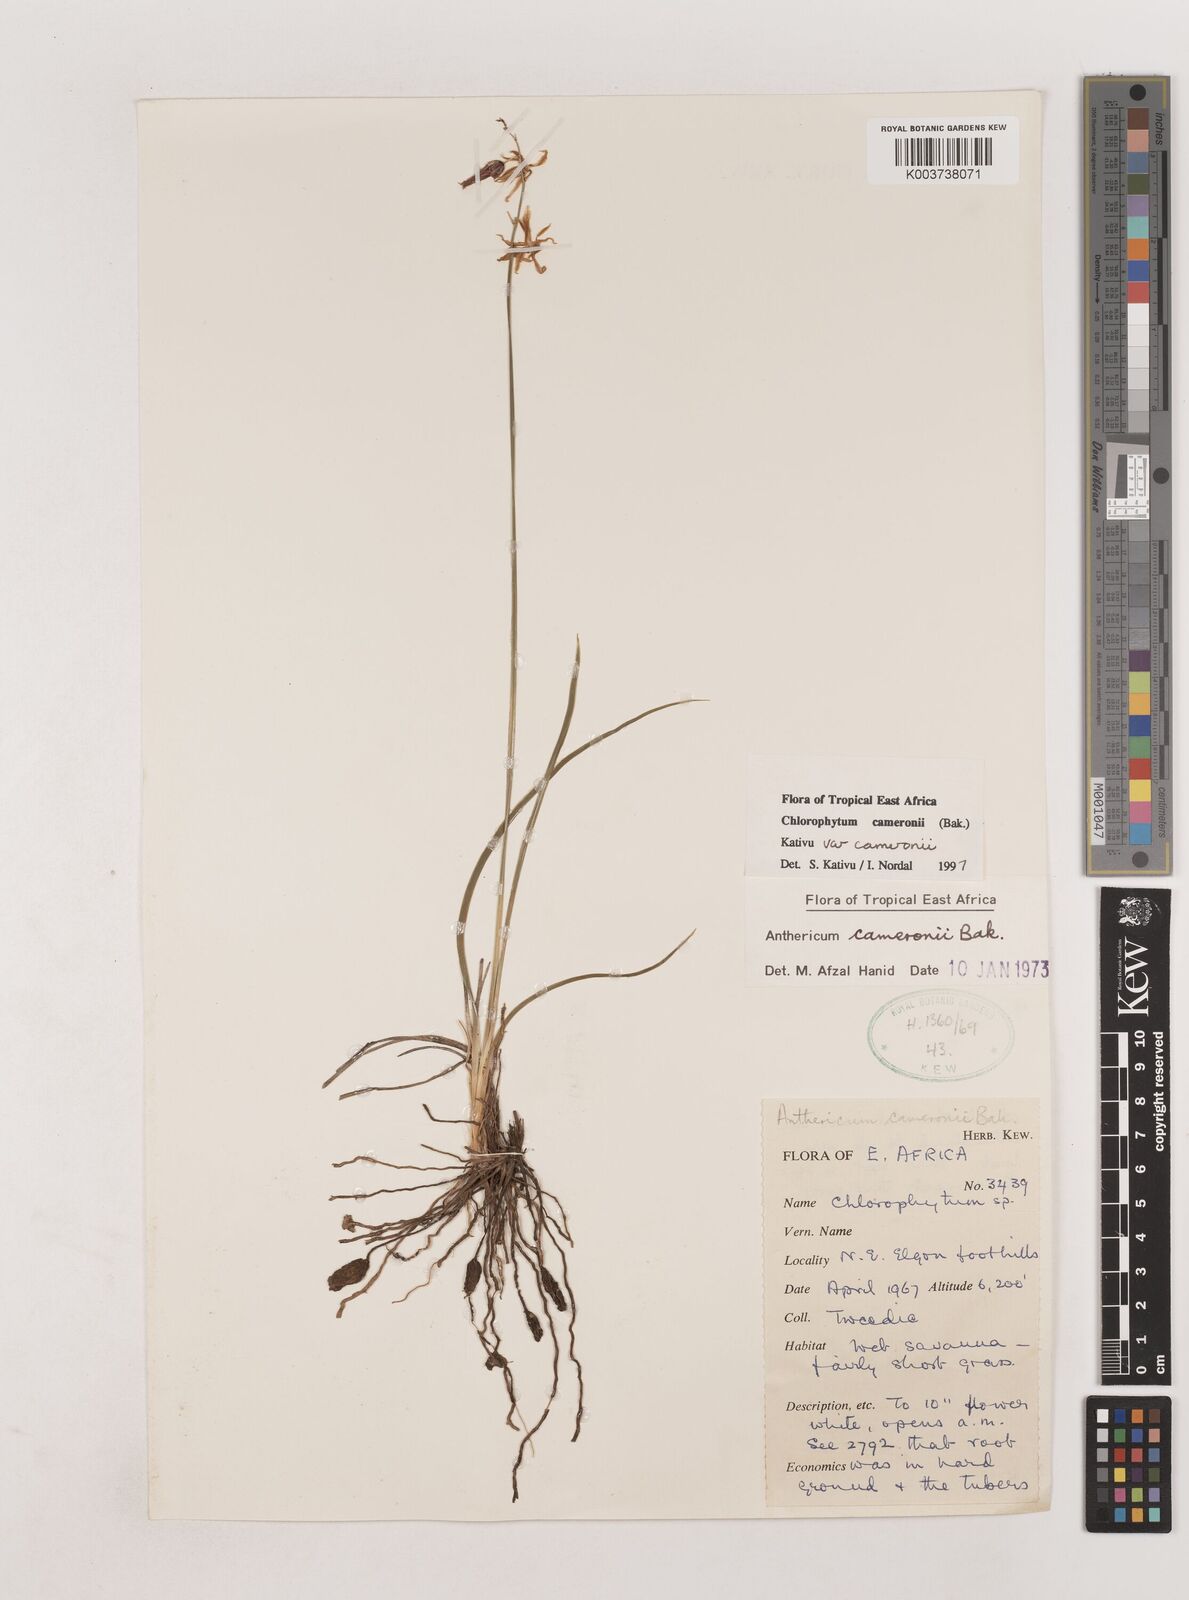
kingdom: Plantae
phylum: Tracheophyta
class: Liliopsida
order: Asparagales
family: Asparagaceae
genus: Chlorophytum
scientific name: Chlorophytum cameronii
